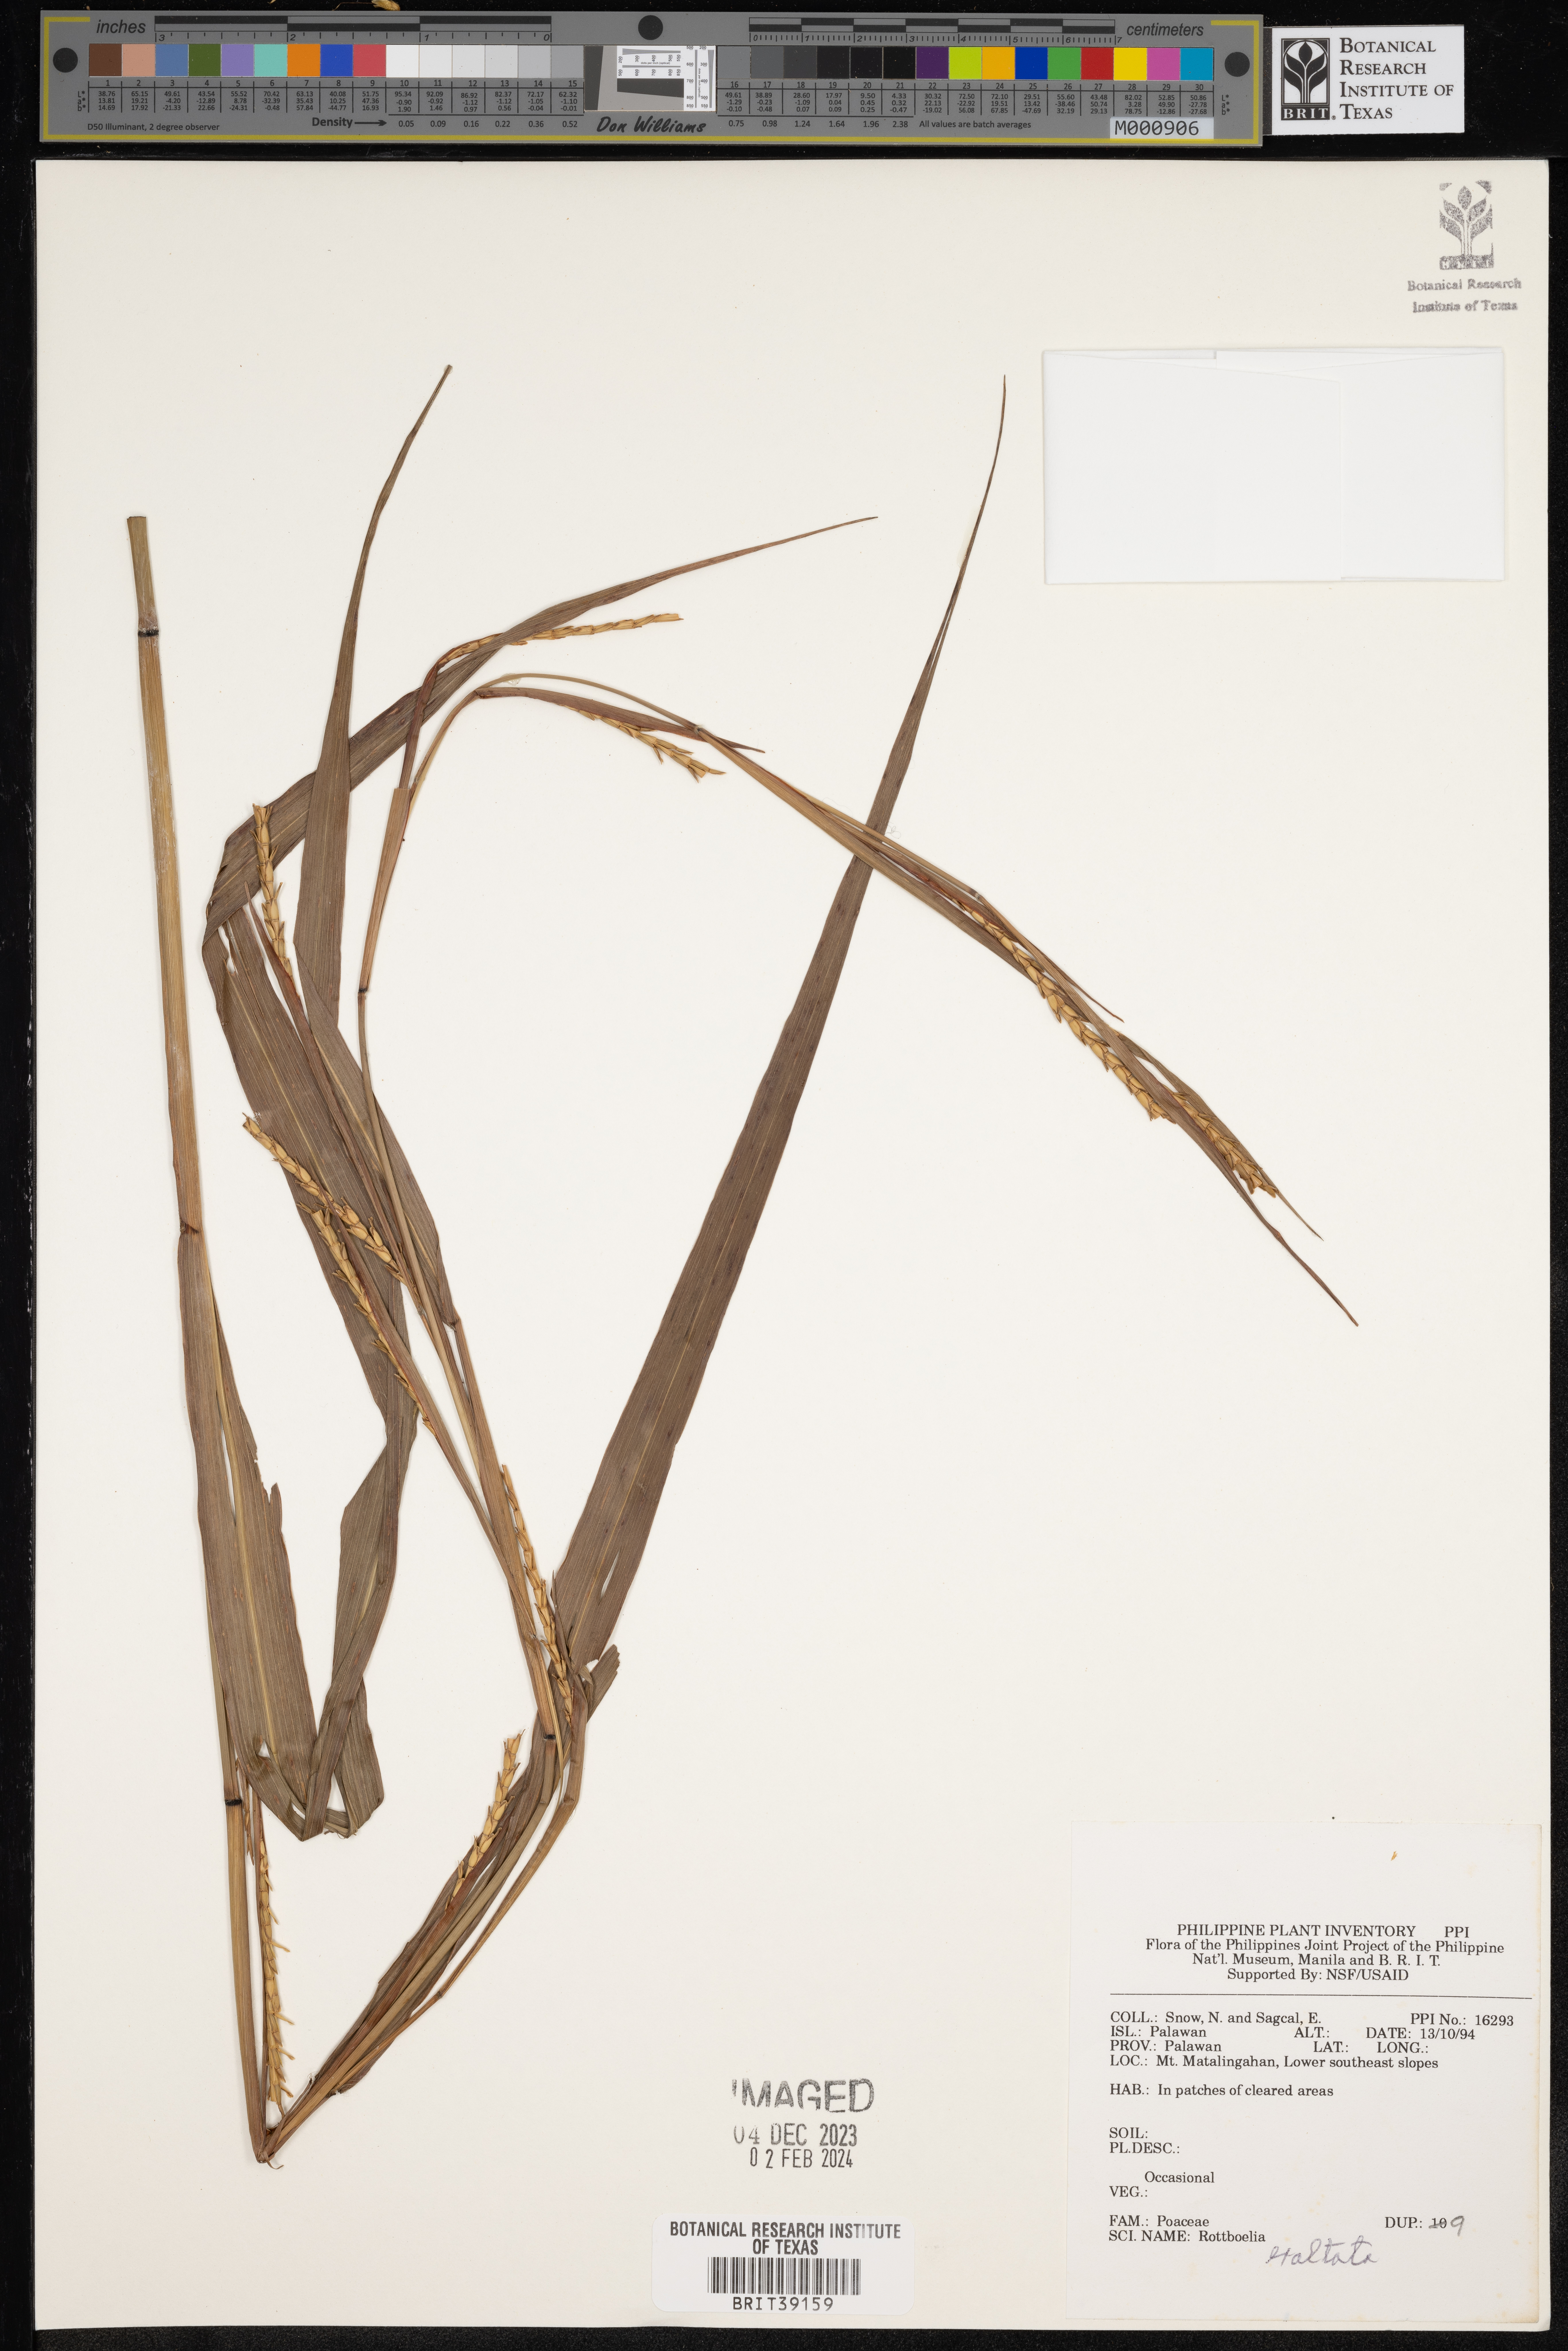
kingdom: Plantae
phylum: Tracheophyta
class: Liliopsida
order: Poales
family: Poaceae
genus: Rottboellia
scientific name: Rottboellia cochinchinensis
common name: Itchgrass
